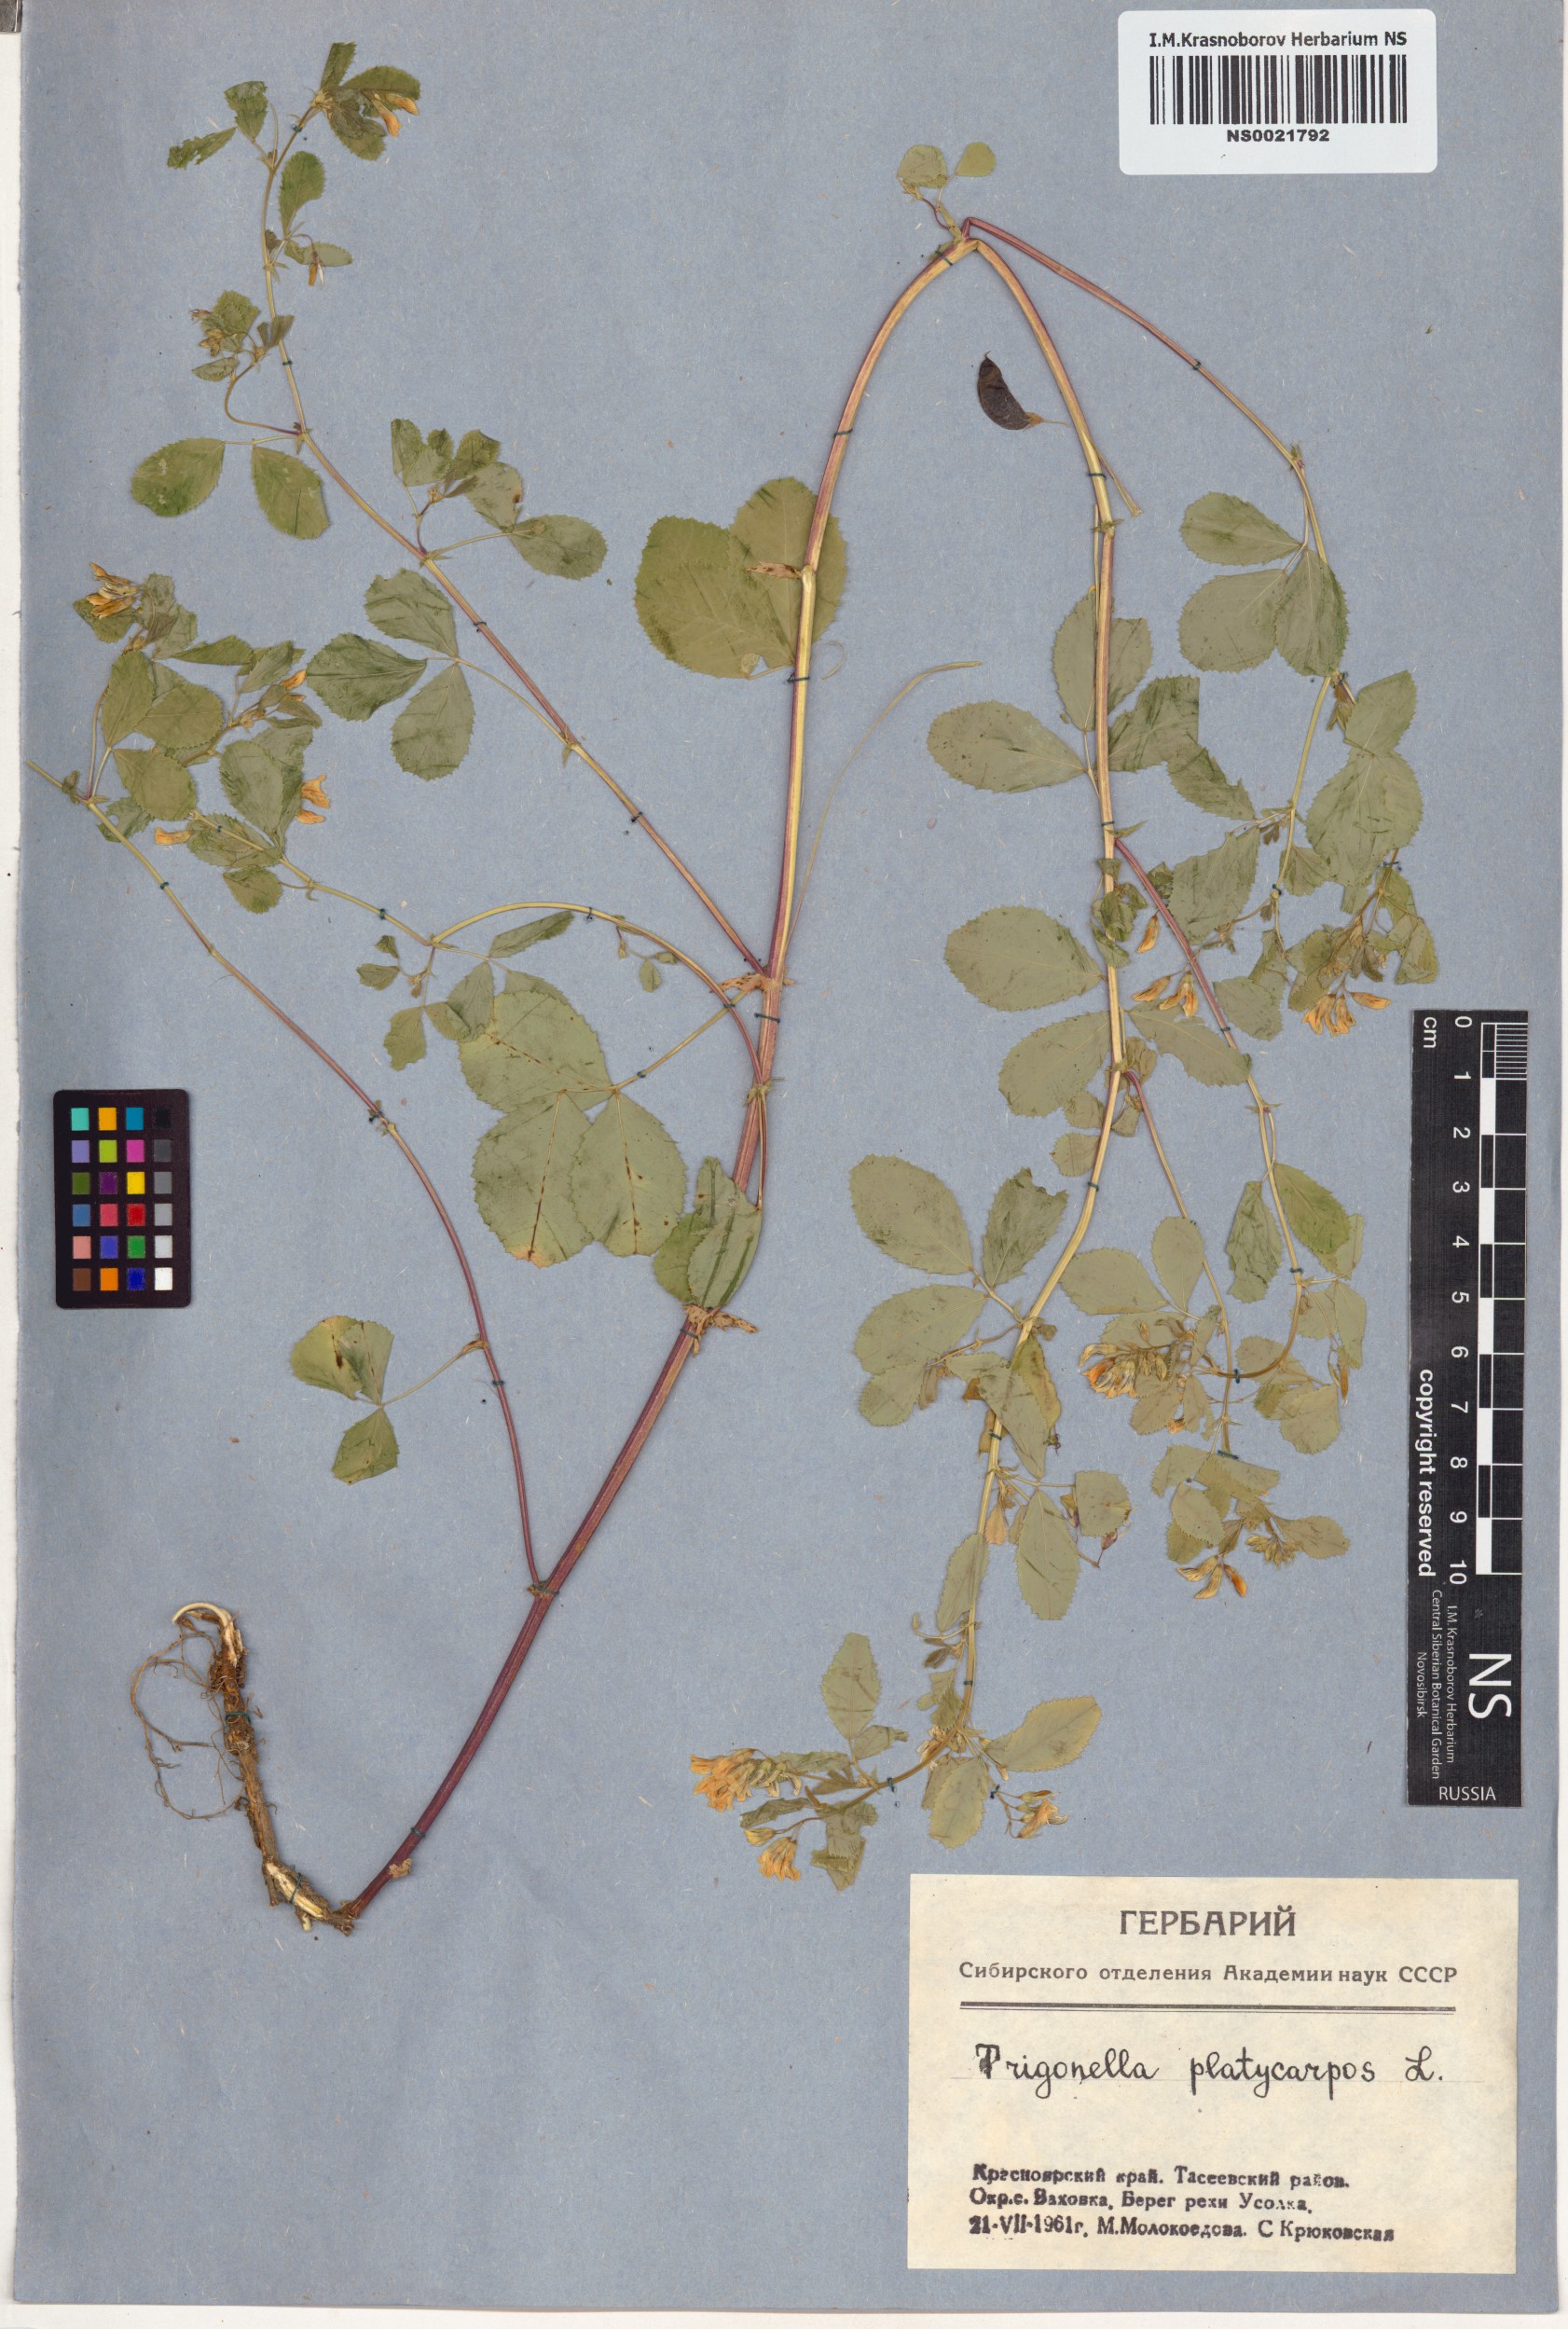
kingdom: Plantae
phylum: Tracheophyta
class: Magnoliopsida
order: Fabales
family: Fabaceae
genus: Medicago
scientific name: Medicago platycarpos
